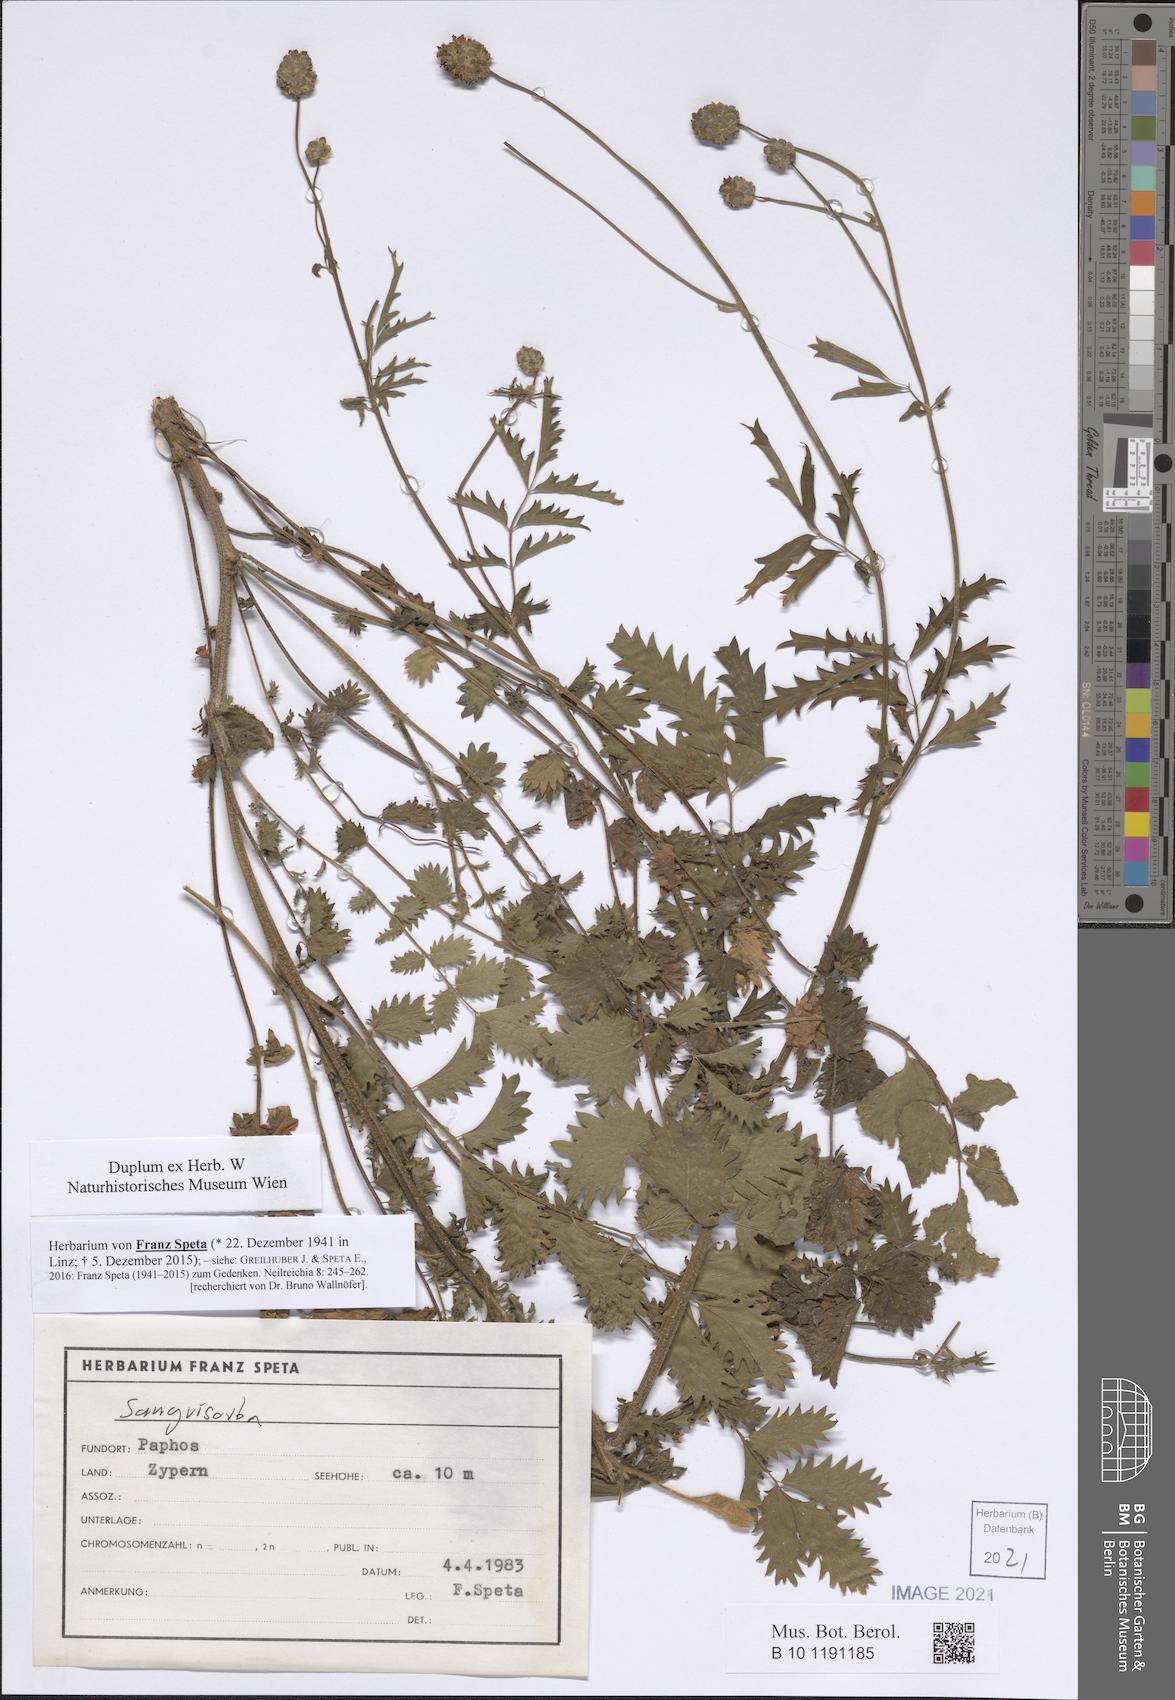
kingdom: Plantae
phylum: Tracheophyta
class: Magnoliopsida
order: Rosales
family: Rosaceae
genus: Sanguisorba
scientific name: Sanguisorba
